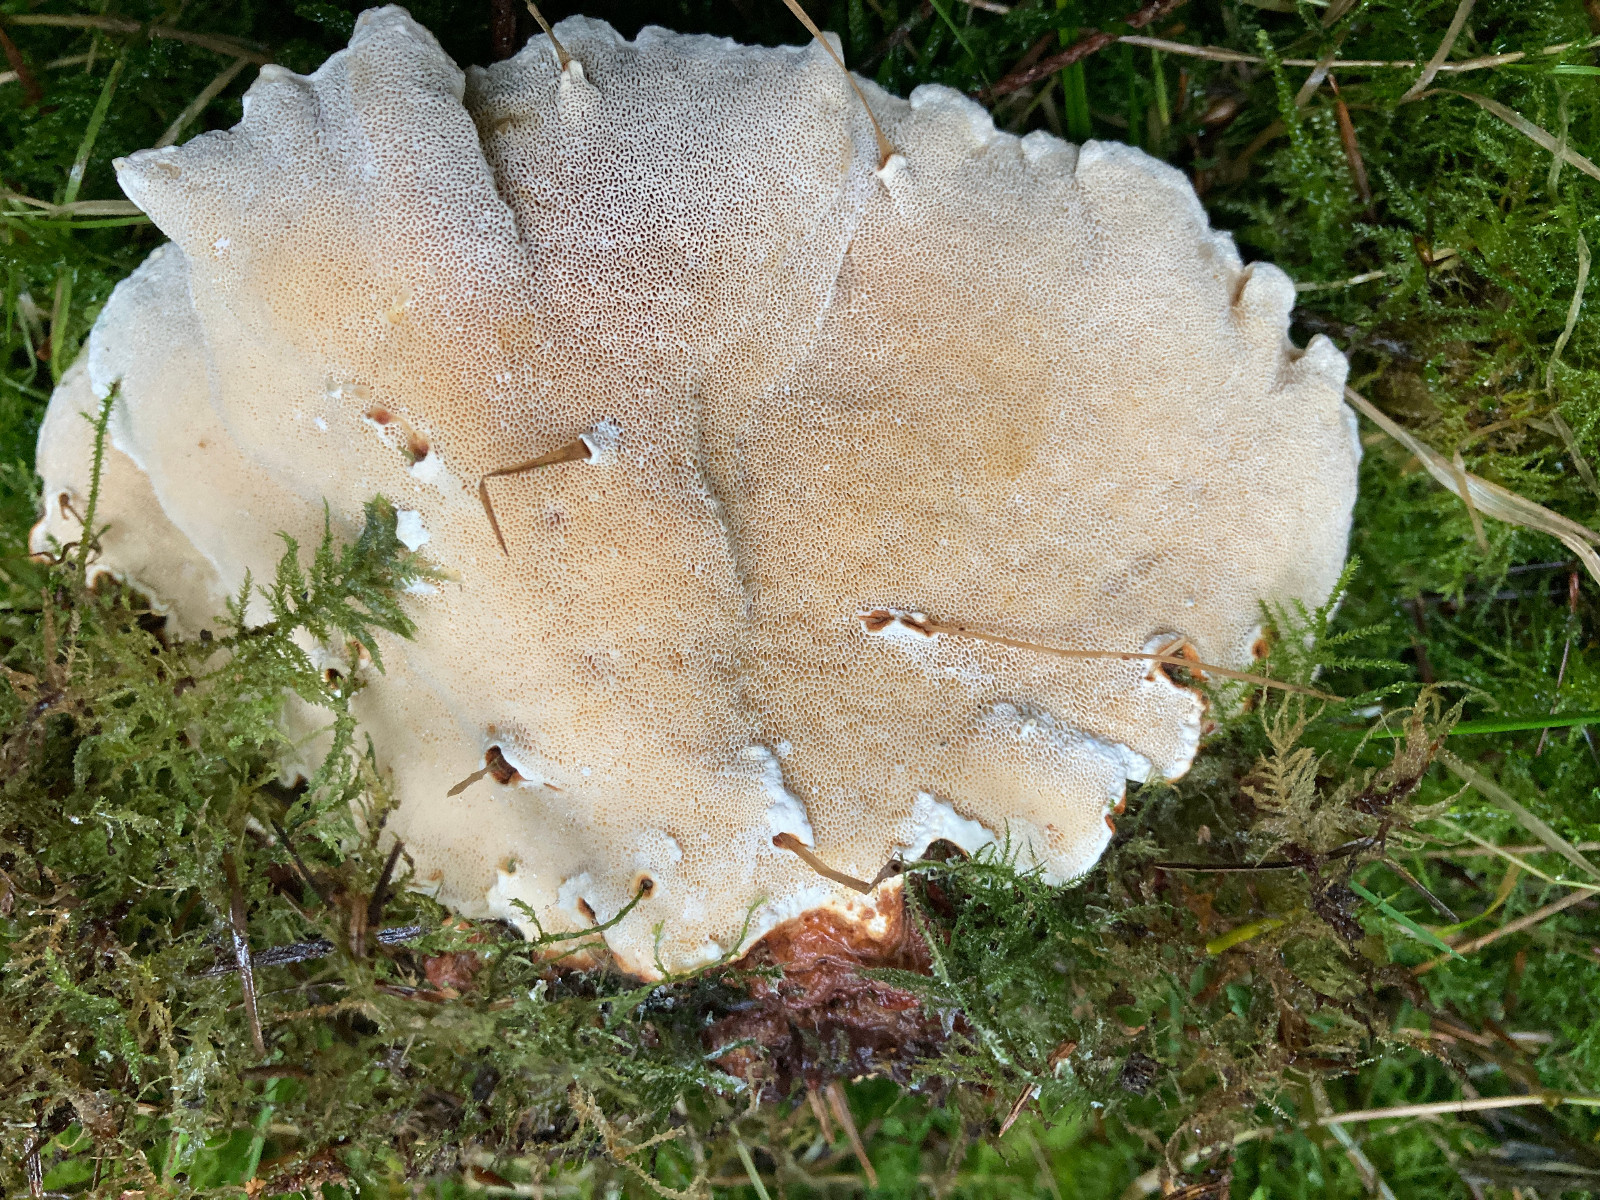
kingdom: Fungi
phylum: Basidiomycota
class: Agaricomycetes
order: Russulales
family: Bondarzewiaceae
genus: Heterobasidion
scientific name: Heterobasidion annosum
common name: almindelig rodfordærver
